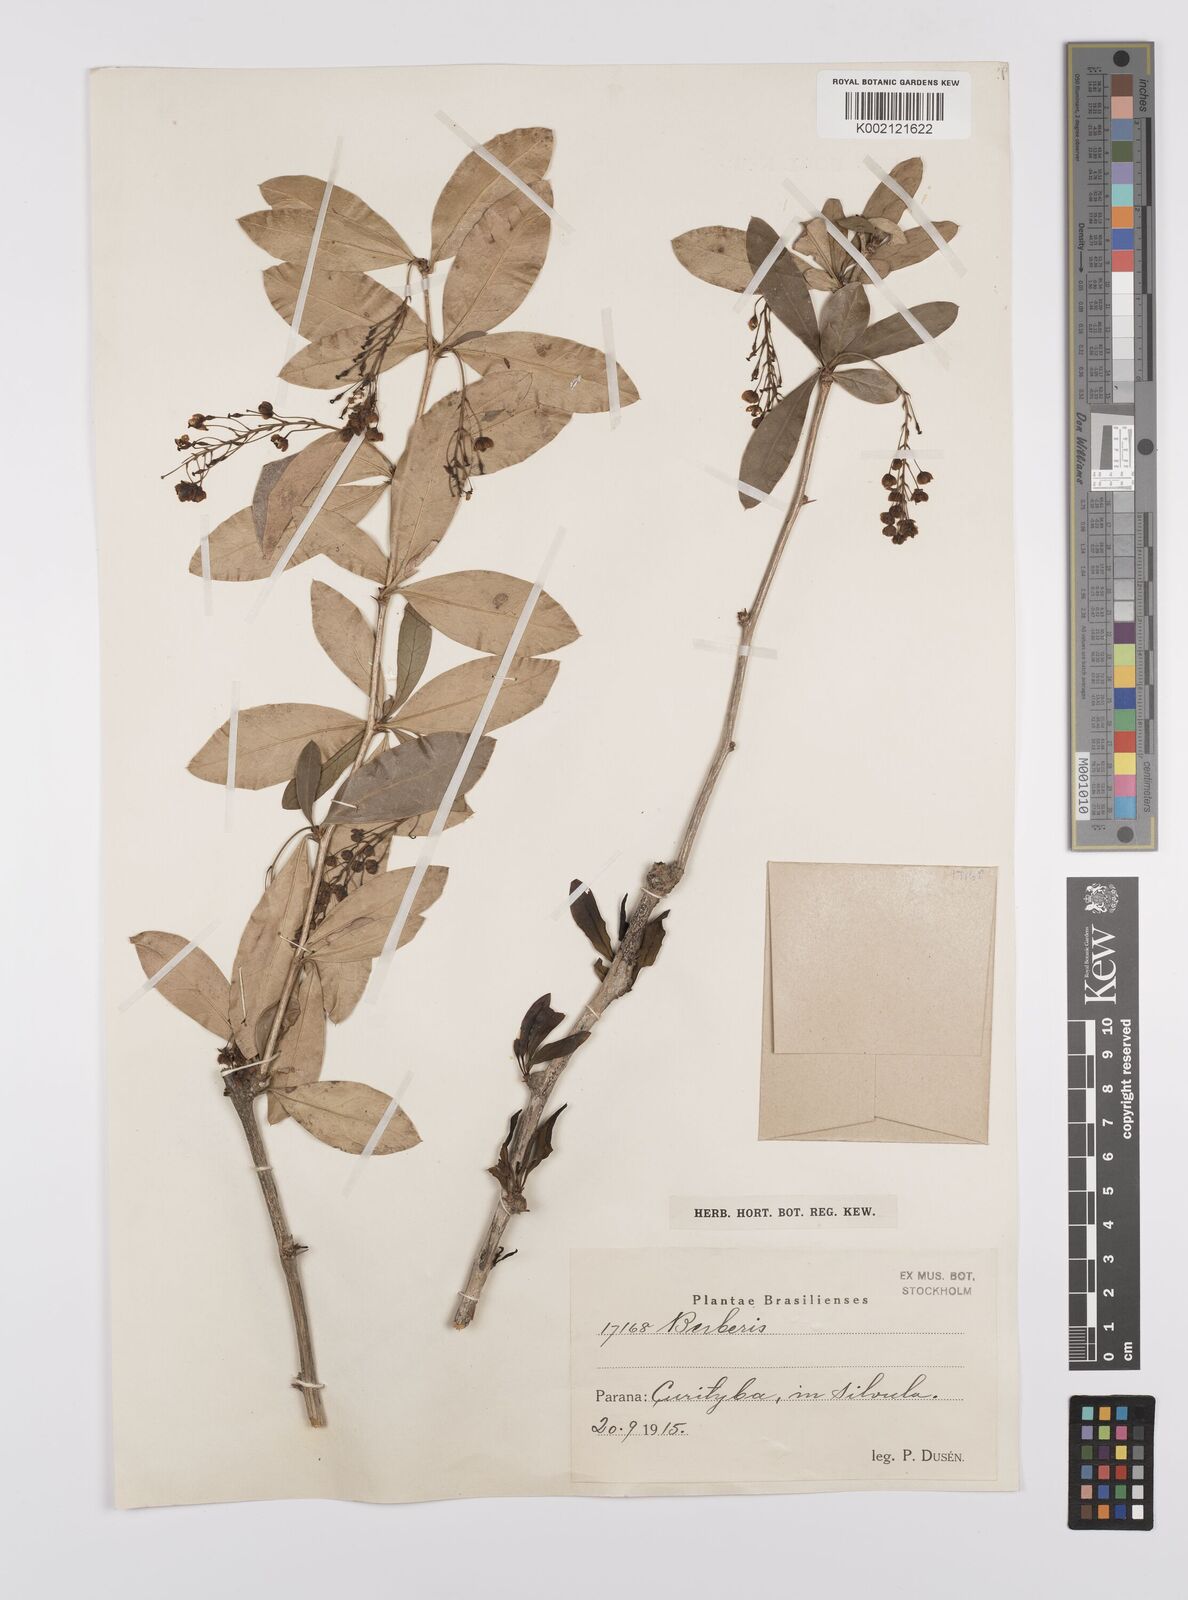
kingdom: Plantae
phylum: Tracheophyta
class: Magnoliopsida
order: Ranunculales
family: Berberidaceae
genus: Berberis
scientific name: Berberis
